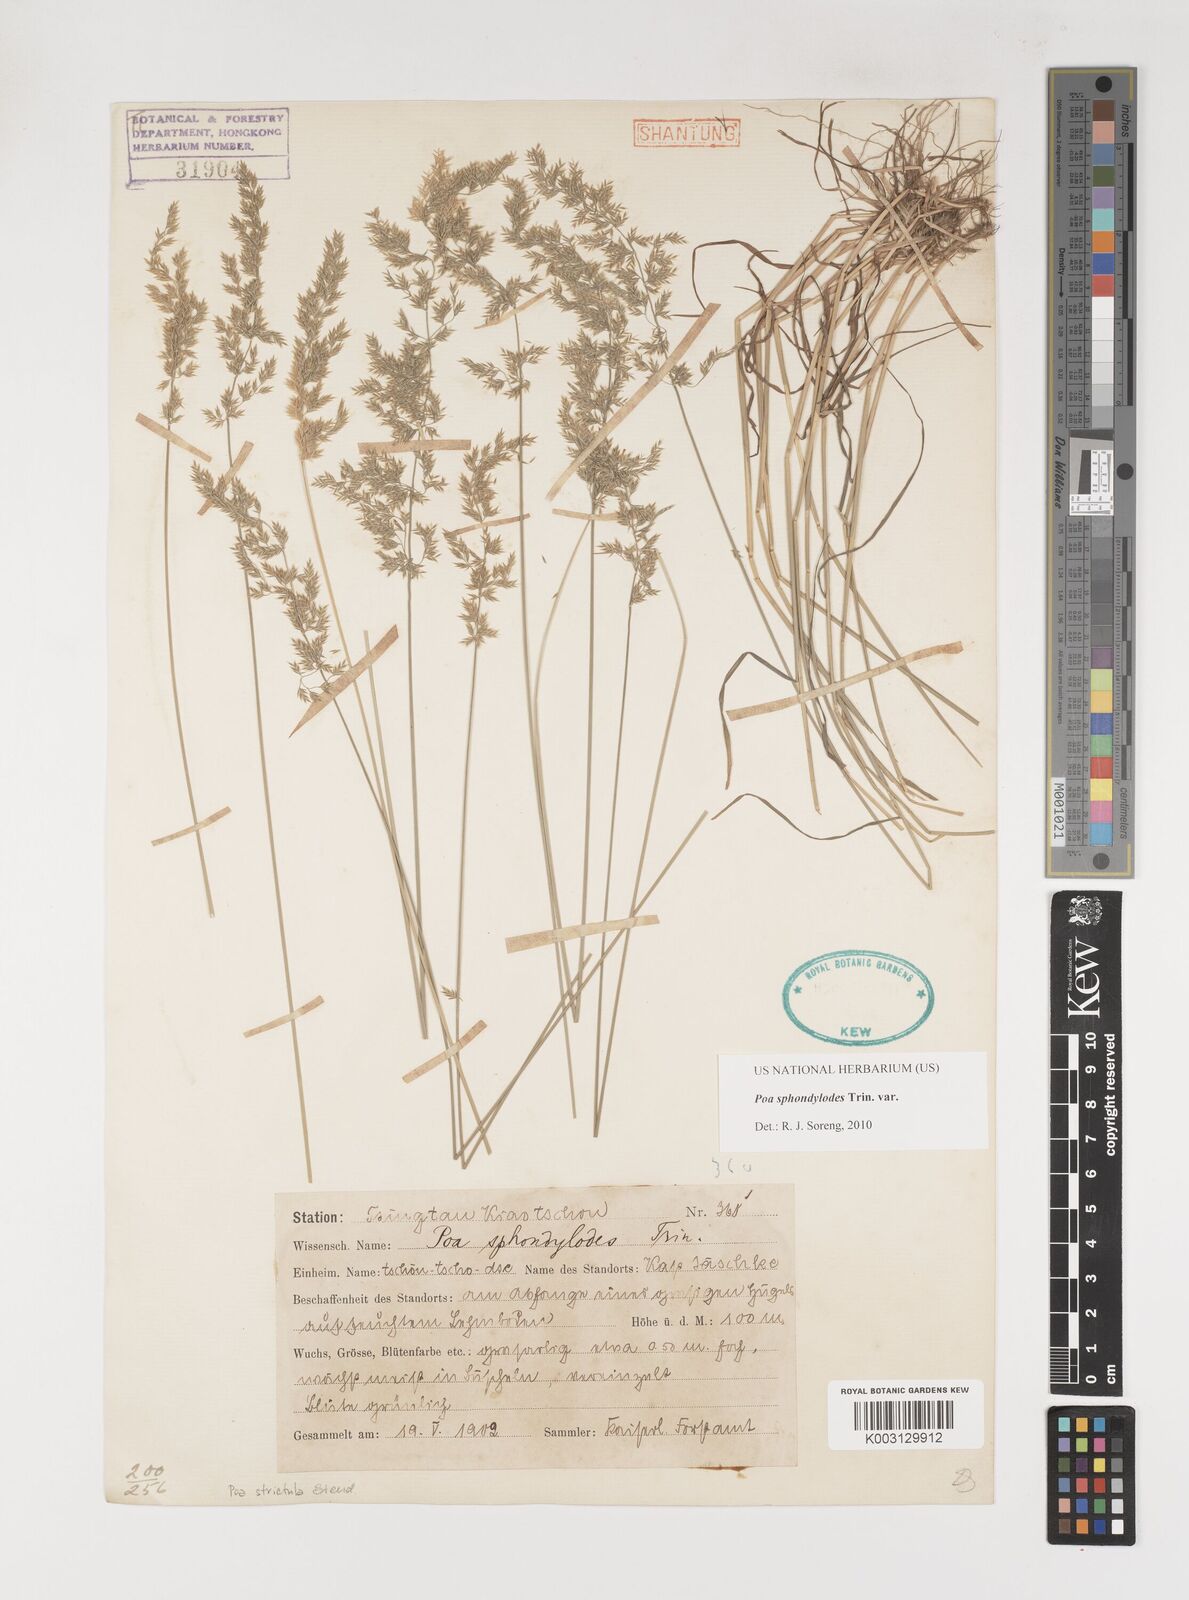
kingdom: Plantae
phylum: Tracheophyta
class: Liliopsida
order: Poales
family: Poaceae
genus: Poa
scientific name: Poa sphondylodes
